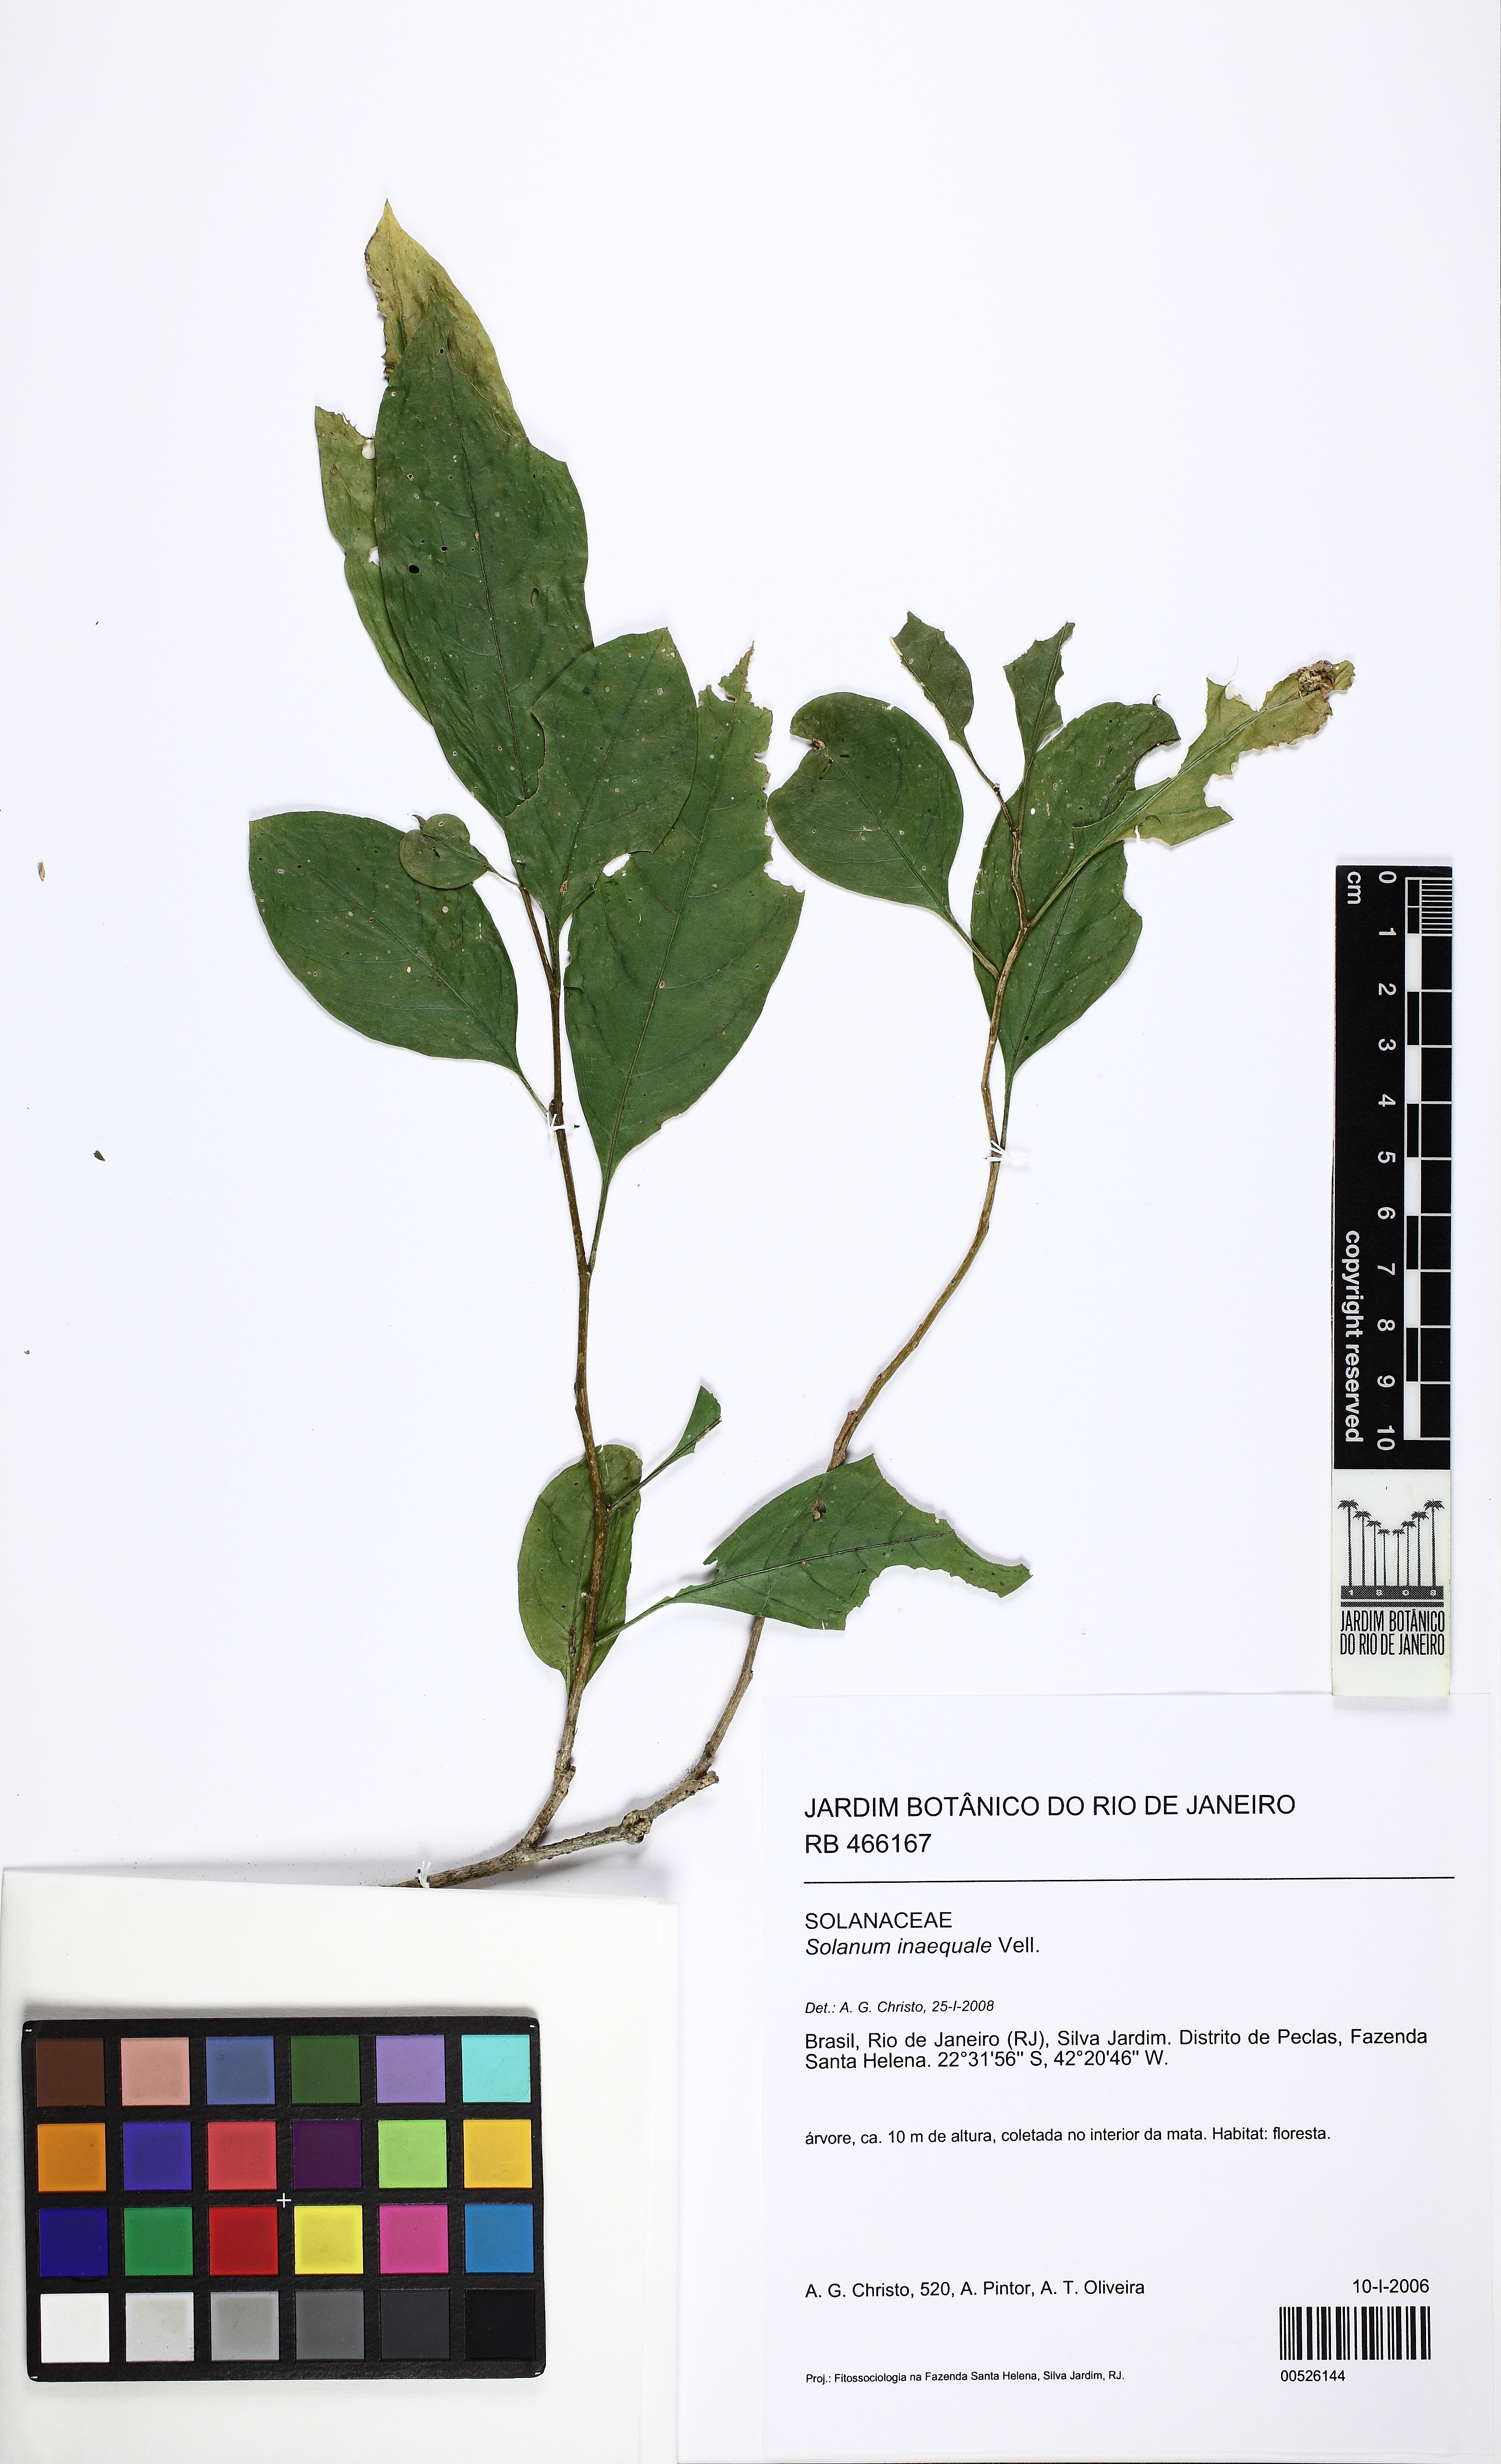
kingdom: Plantae
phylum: Tracheophyta
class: Magnoliopsida
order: Solanales
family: Solanaceae
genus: Solanum
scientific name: Solanum pseudoquina
